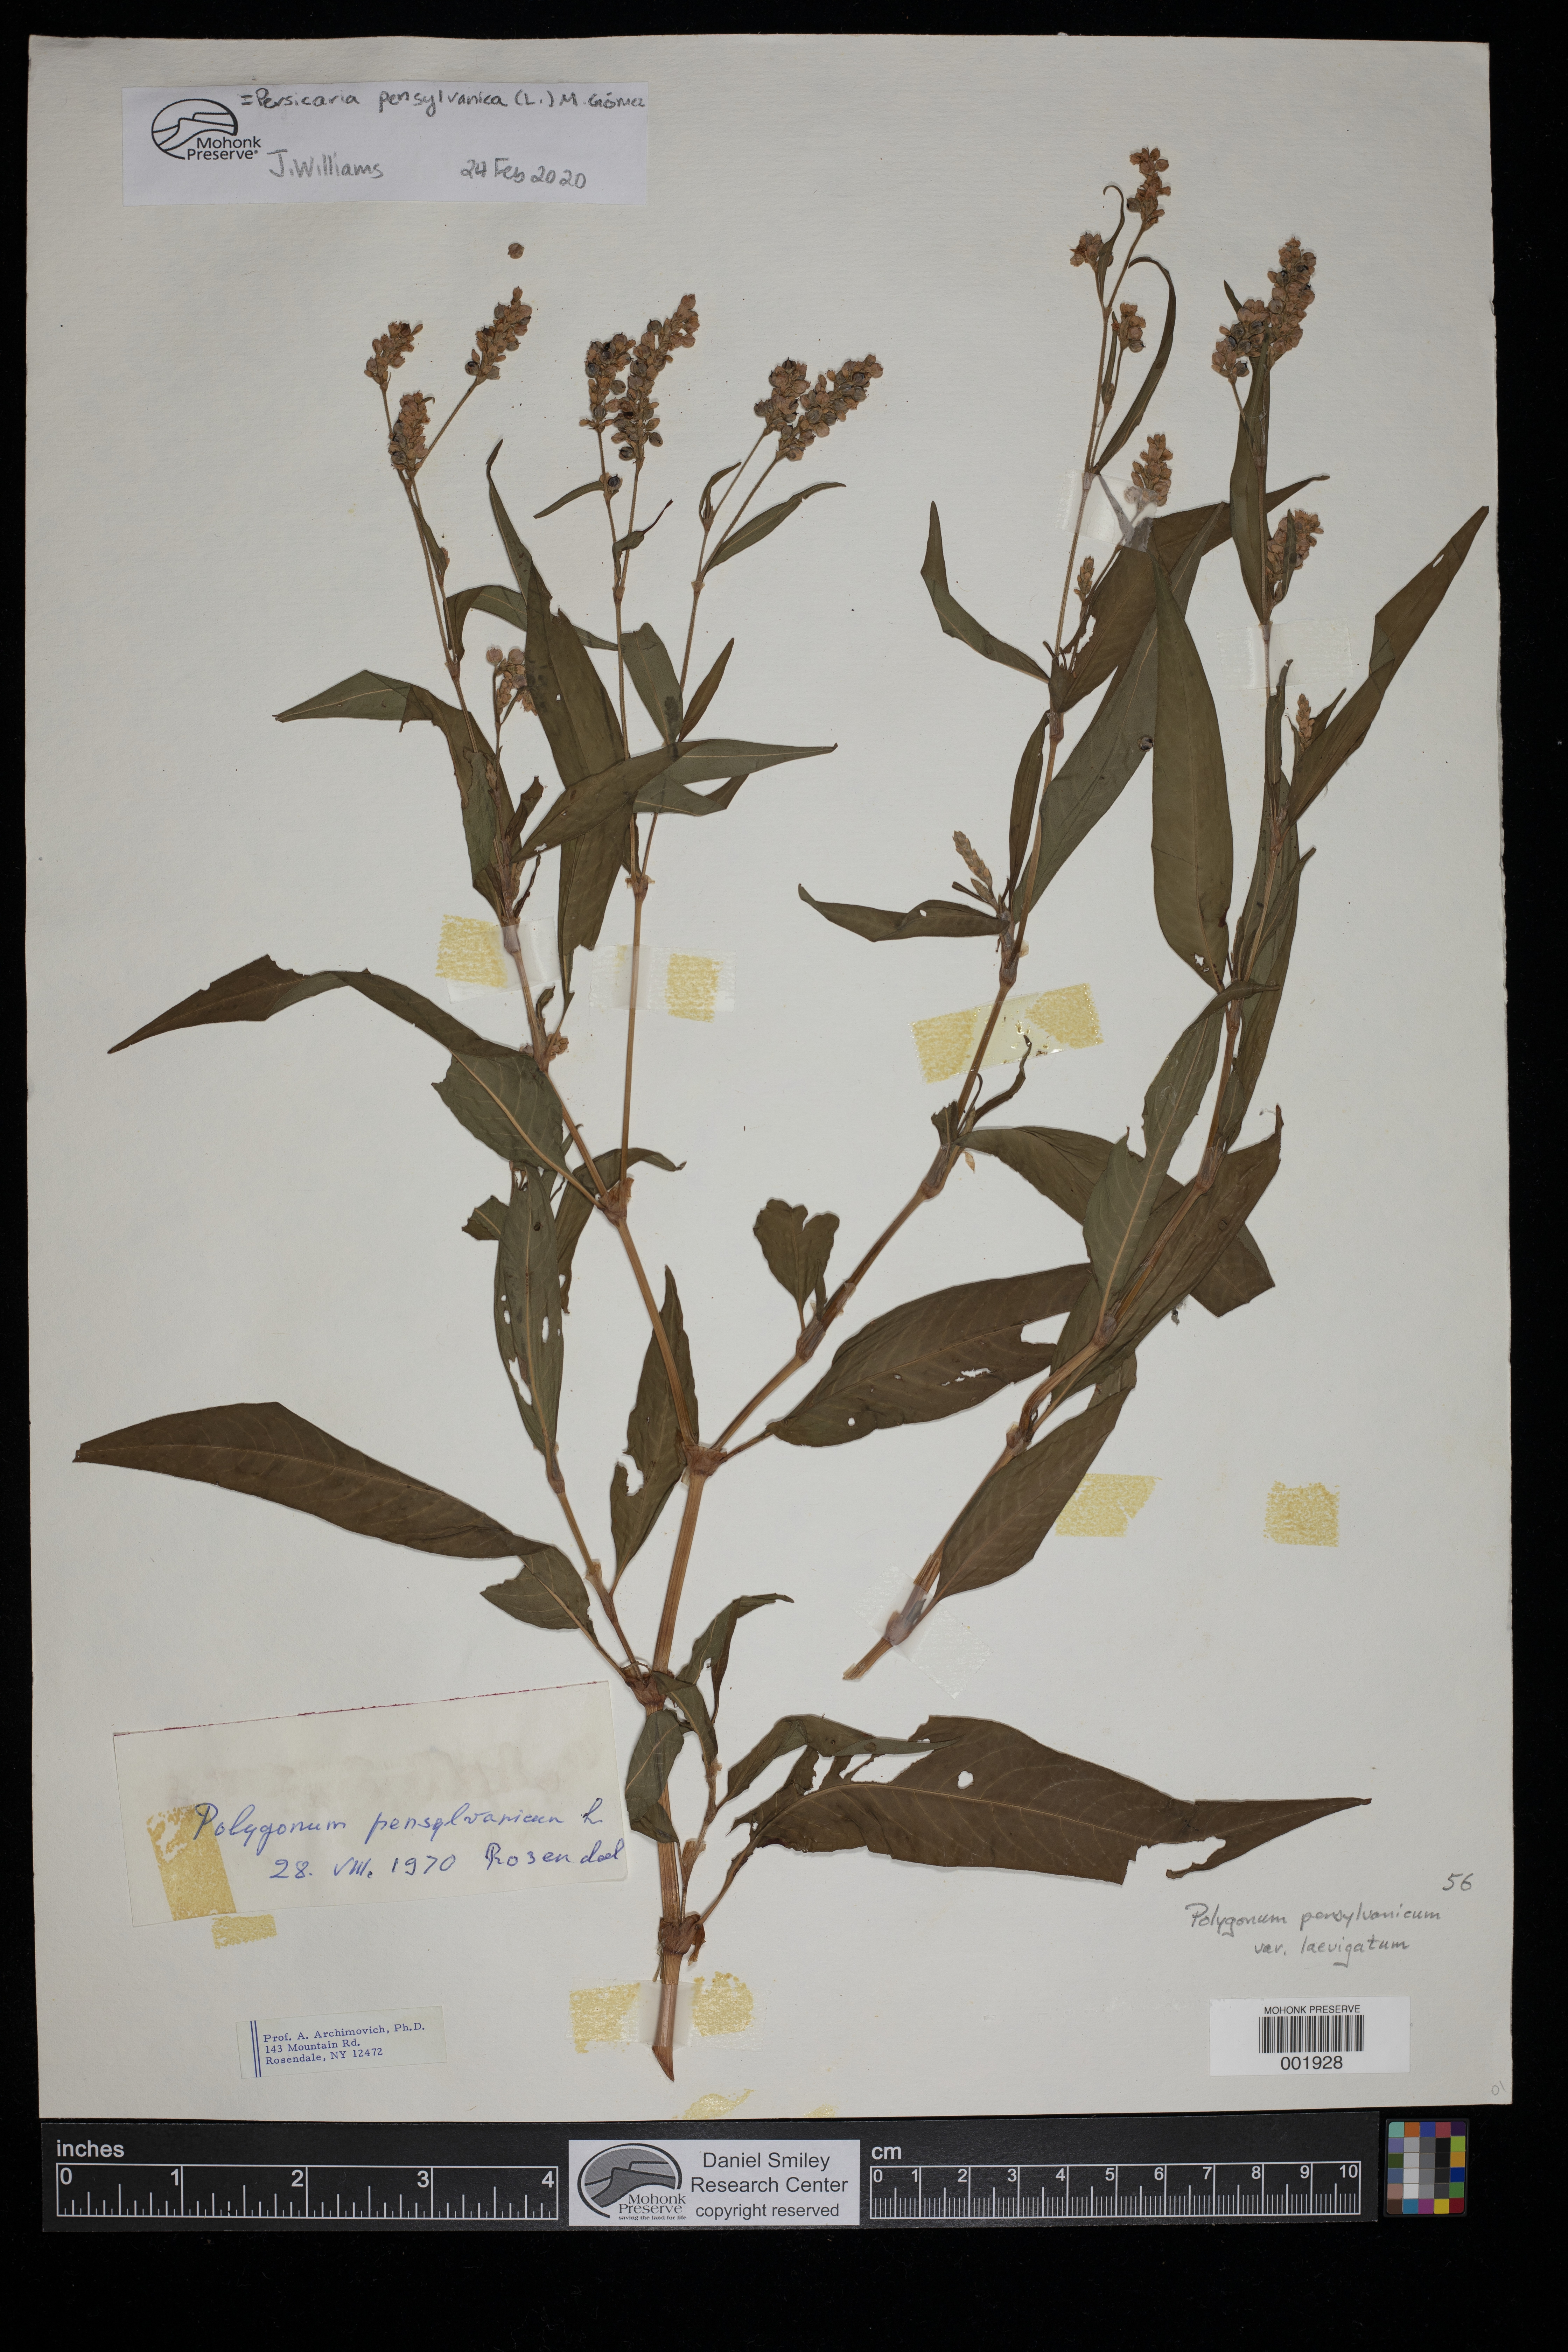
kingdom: Plantae
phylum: Tracheophyta
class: Magnoliopsida
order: Caryophyllales
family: Polygonaceae
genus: Persicaria
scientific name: Persicaria pensylvanica
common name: Pinkweed
